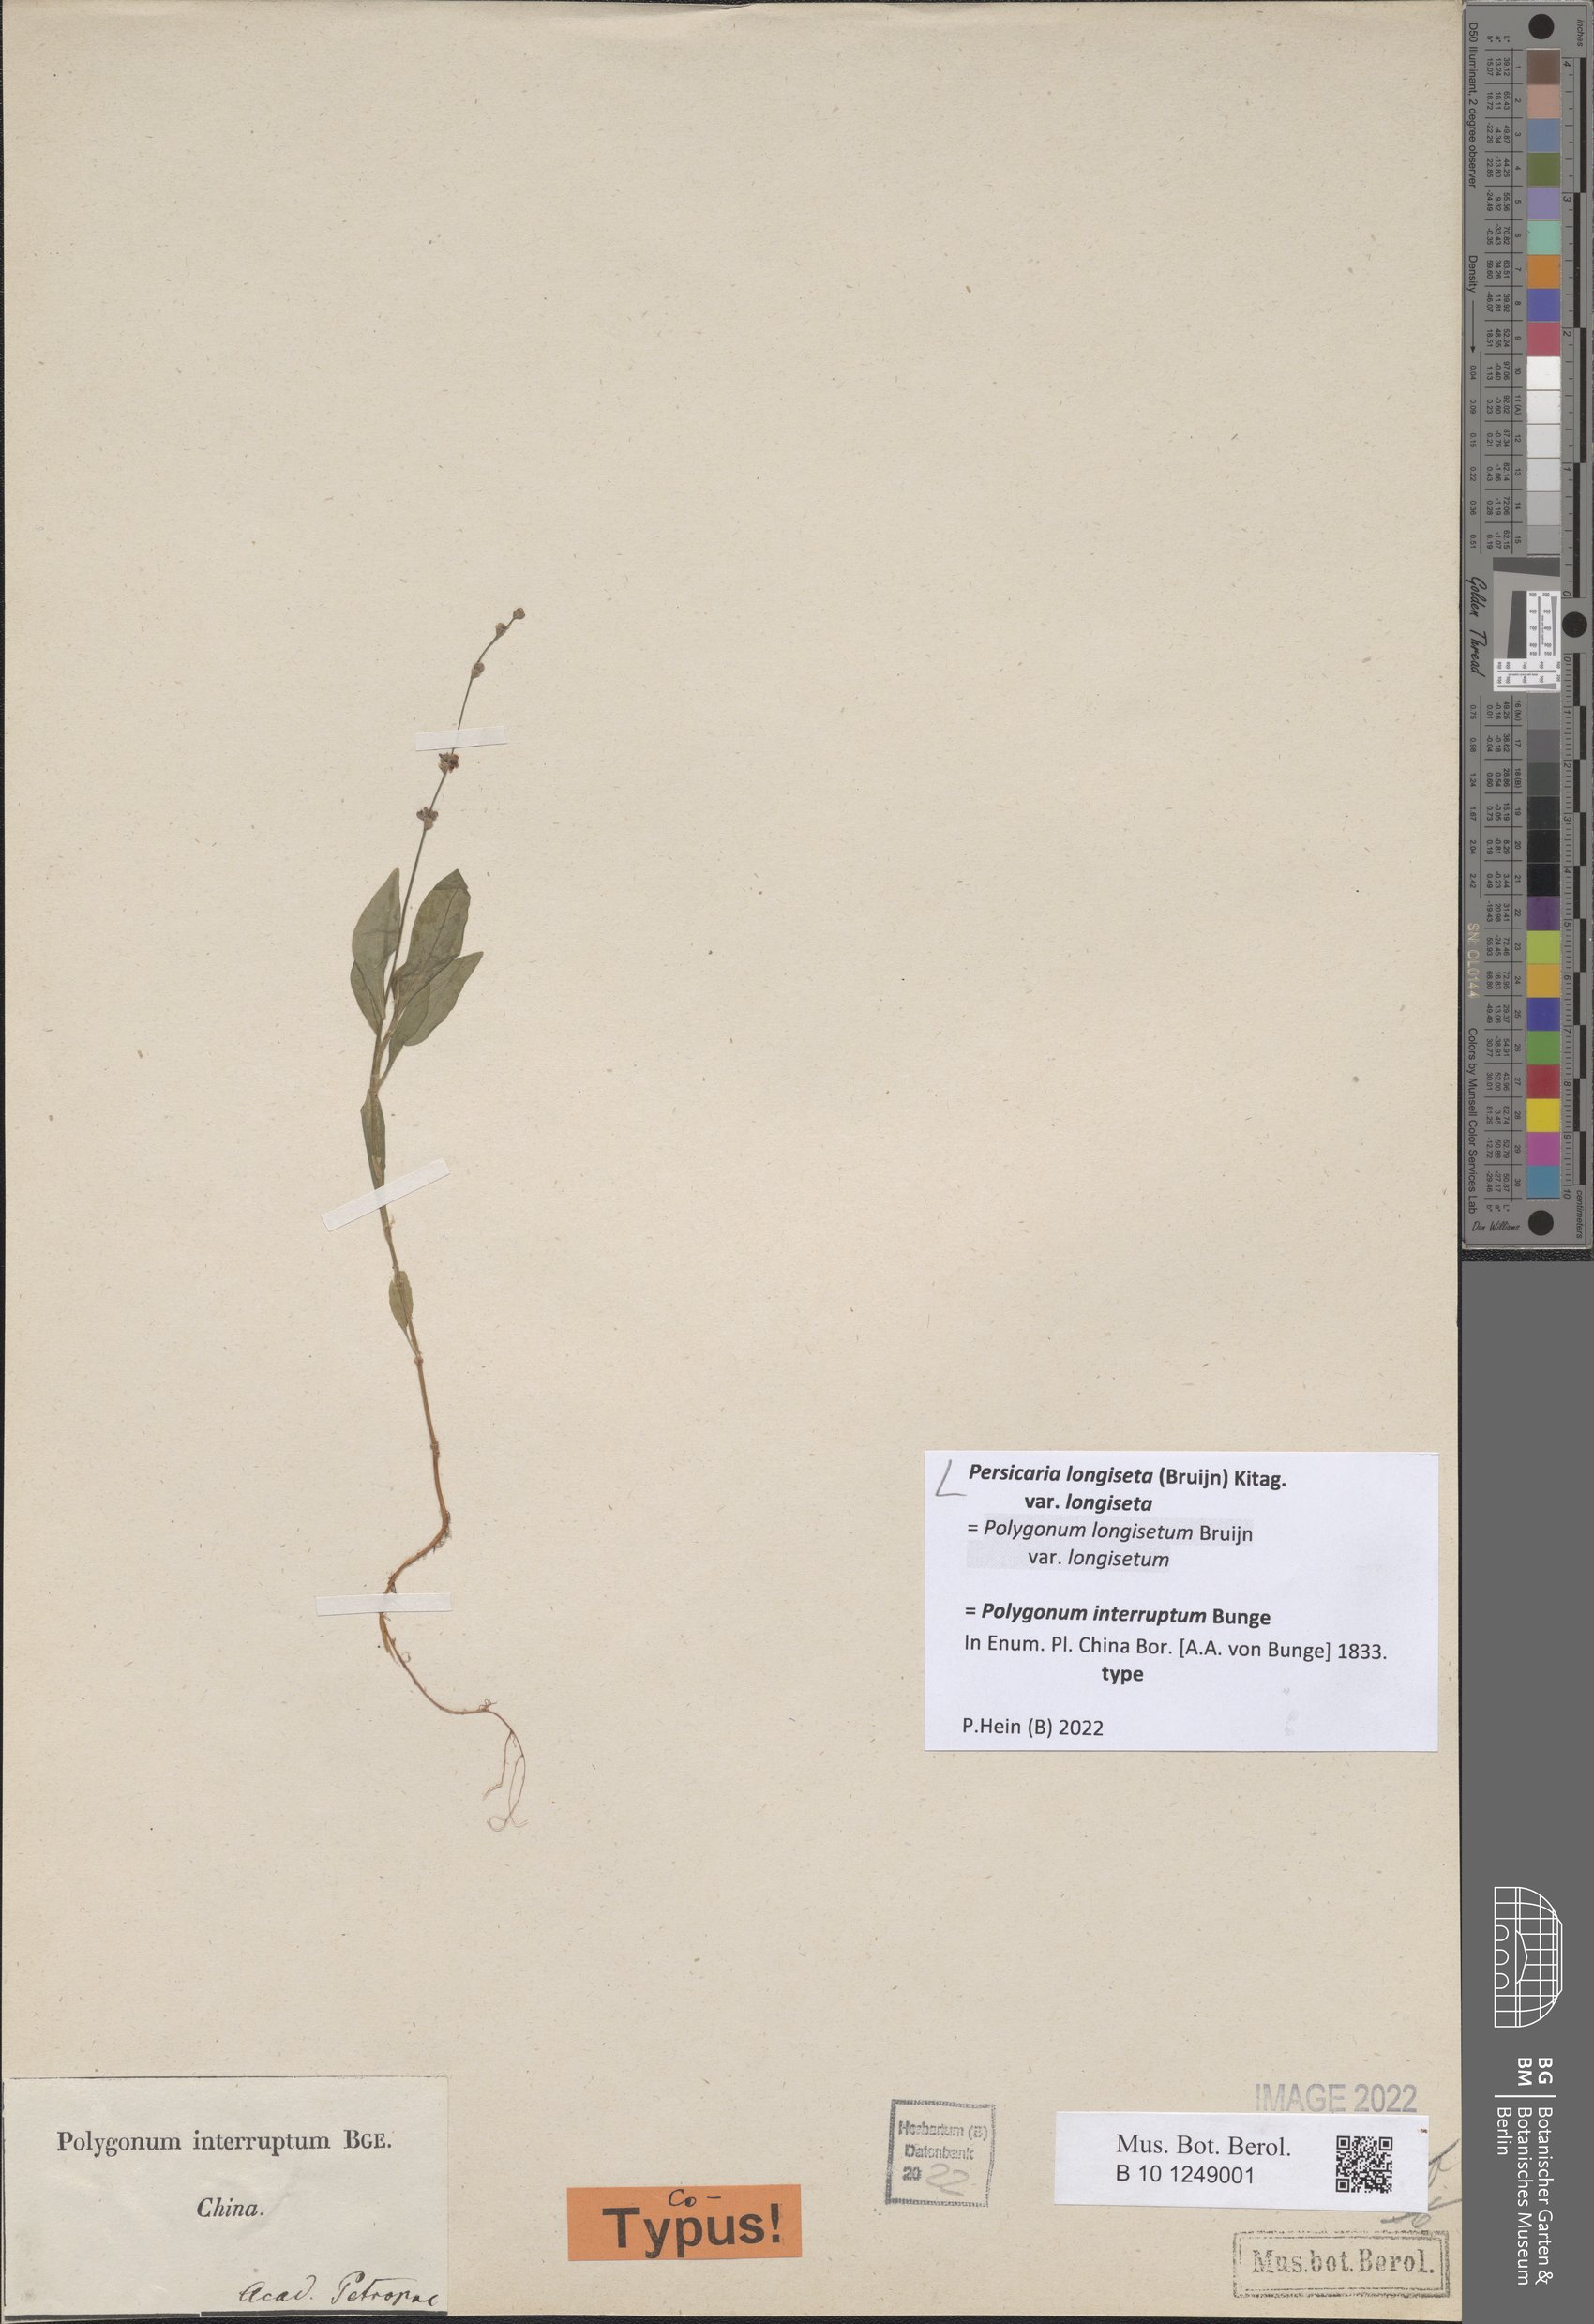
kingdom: Plantae
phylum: Tracheophyta
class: Magnoliopsida
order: Caryophyllales
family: Polygonaceae
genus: Persicaria
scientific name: Persicaria longiseta
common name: Bristly lady's-thumb
